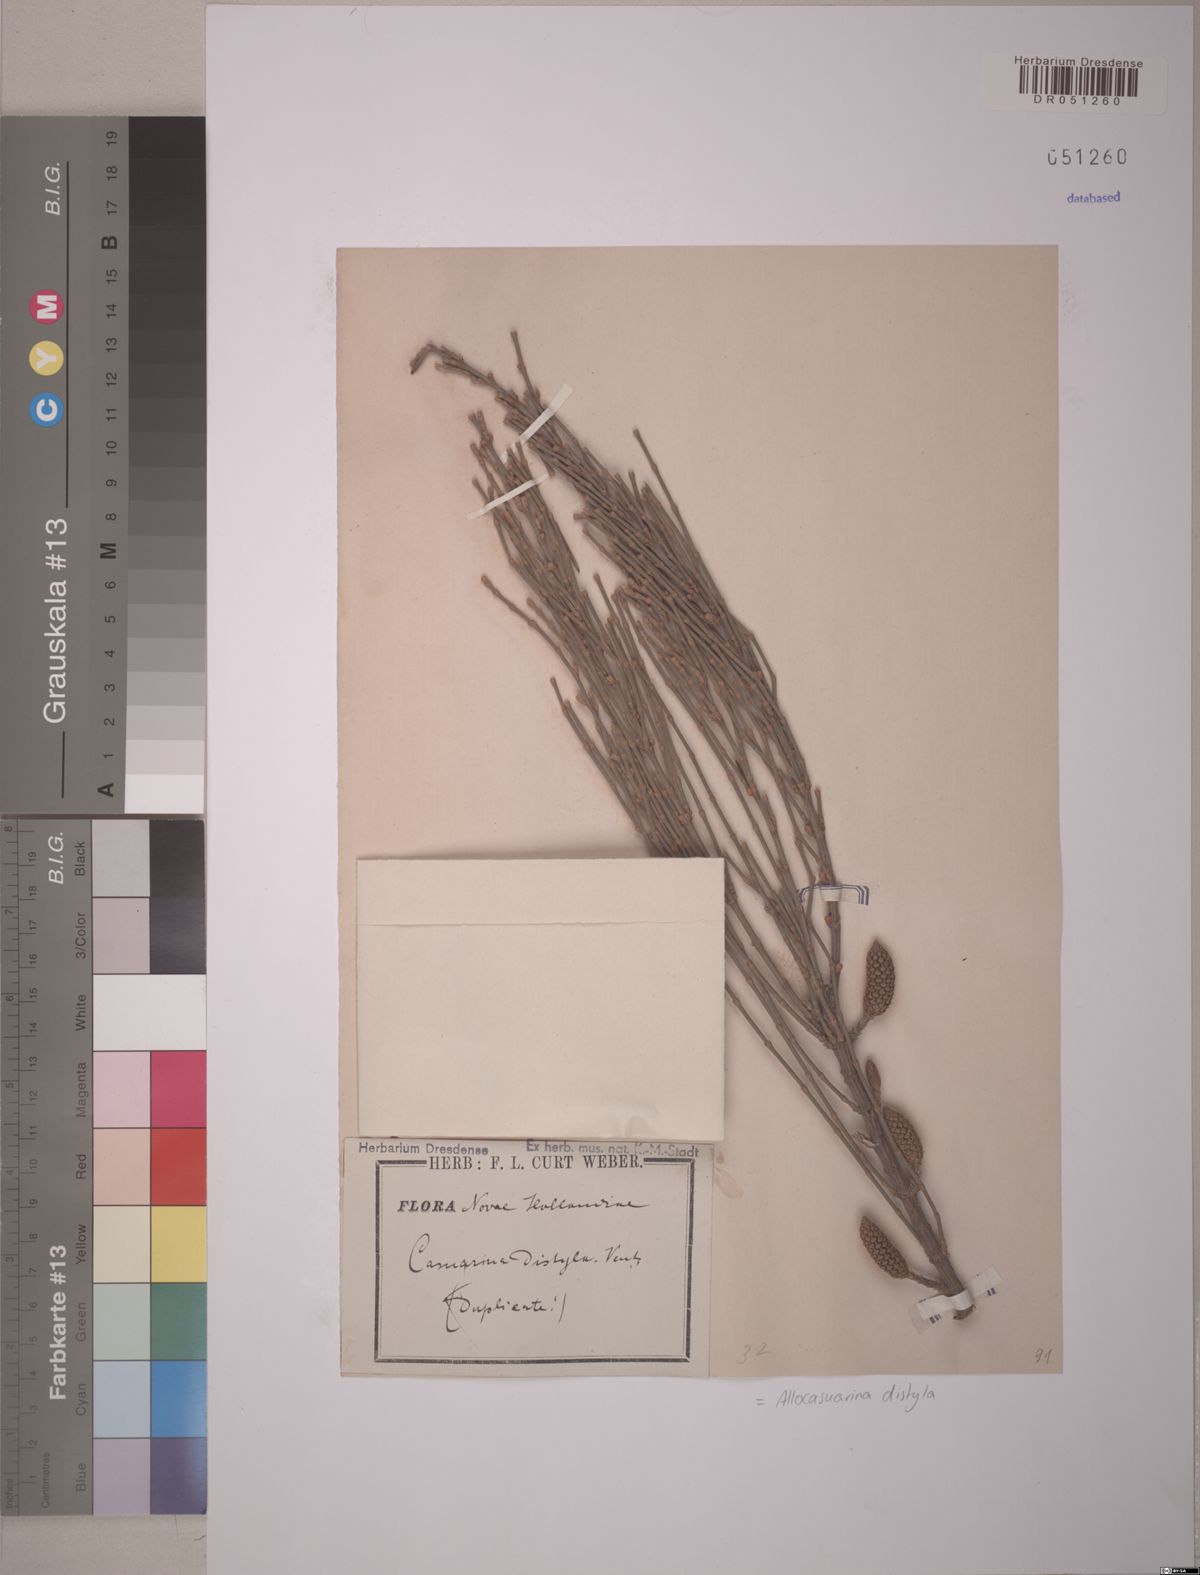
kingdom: Plantae
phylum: Tracheophyta
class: Magnoliopsida
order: Fagales
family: Casuarinaceae
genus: Allocasuarina
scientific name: Allocasuarina distyla
